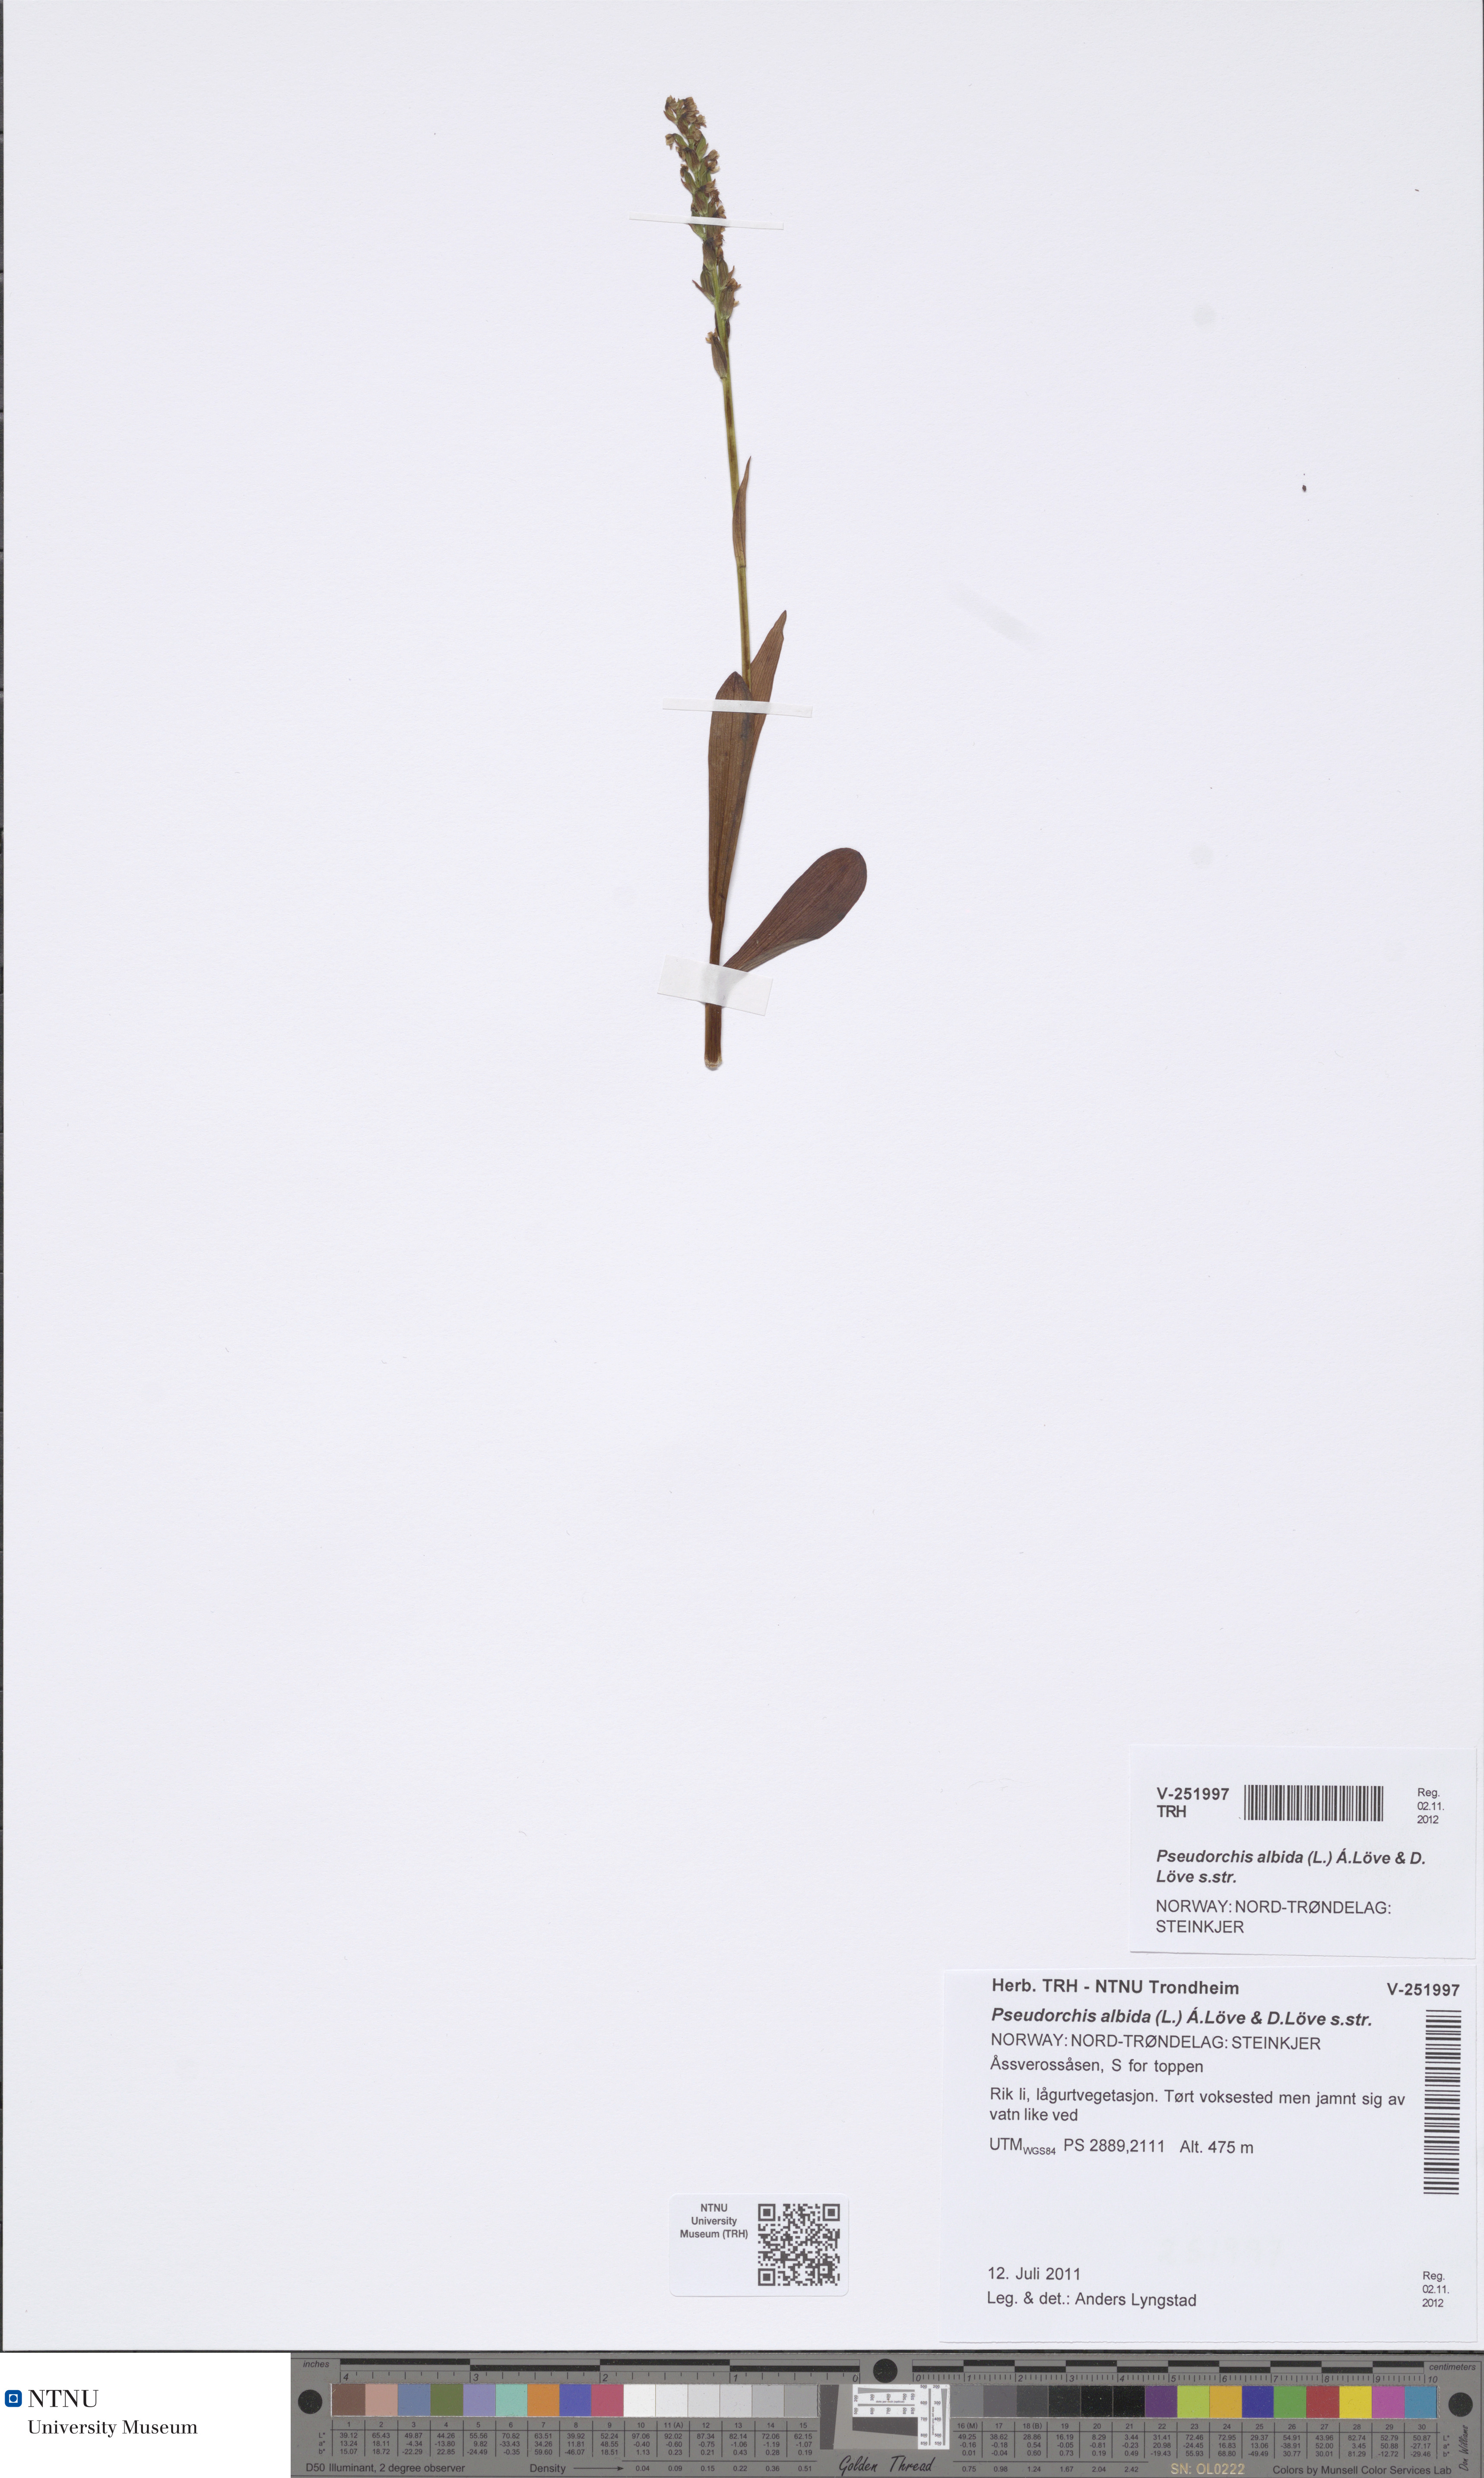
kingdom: Plantae
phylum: Tracheophyta
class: Liliopsida
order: Asparagales
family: Orchidaceae
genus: Pseudorchis
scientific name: Pseudorchis albida
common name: Small-white orchid
